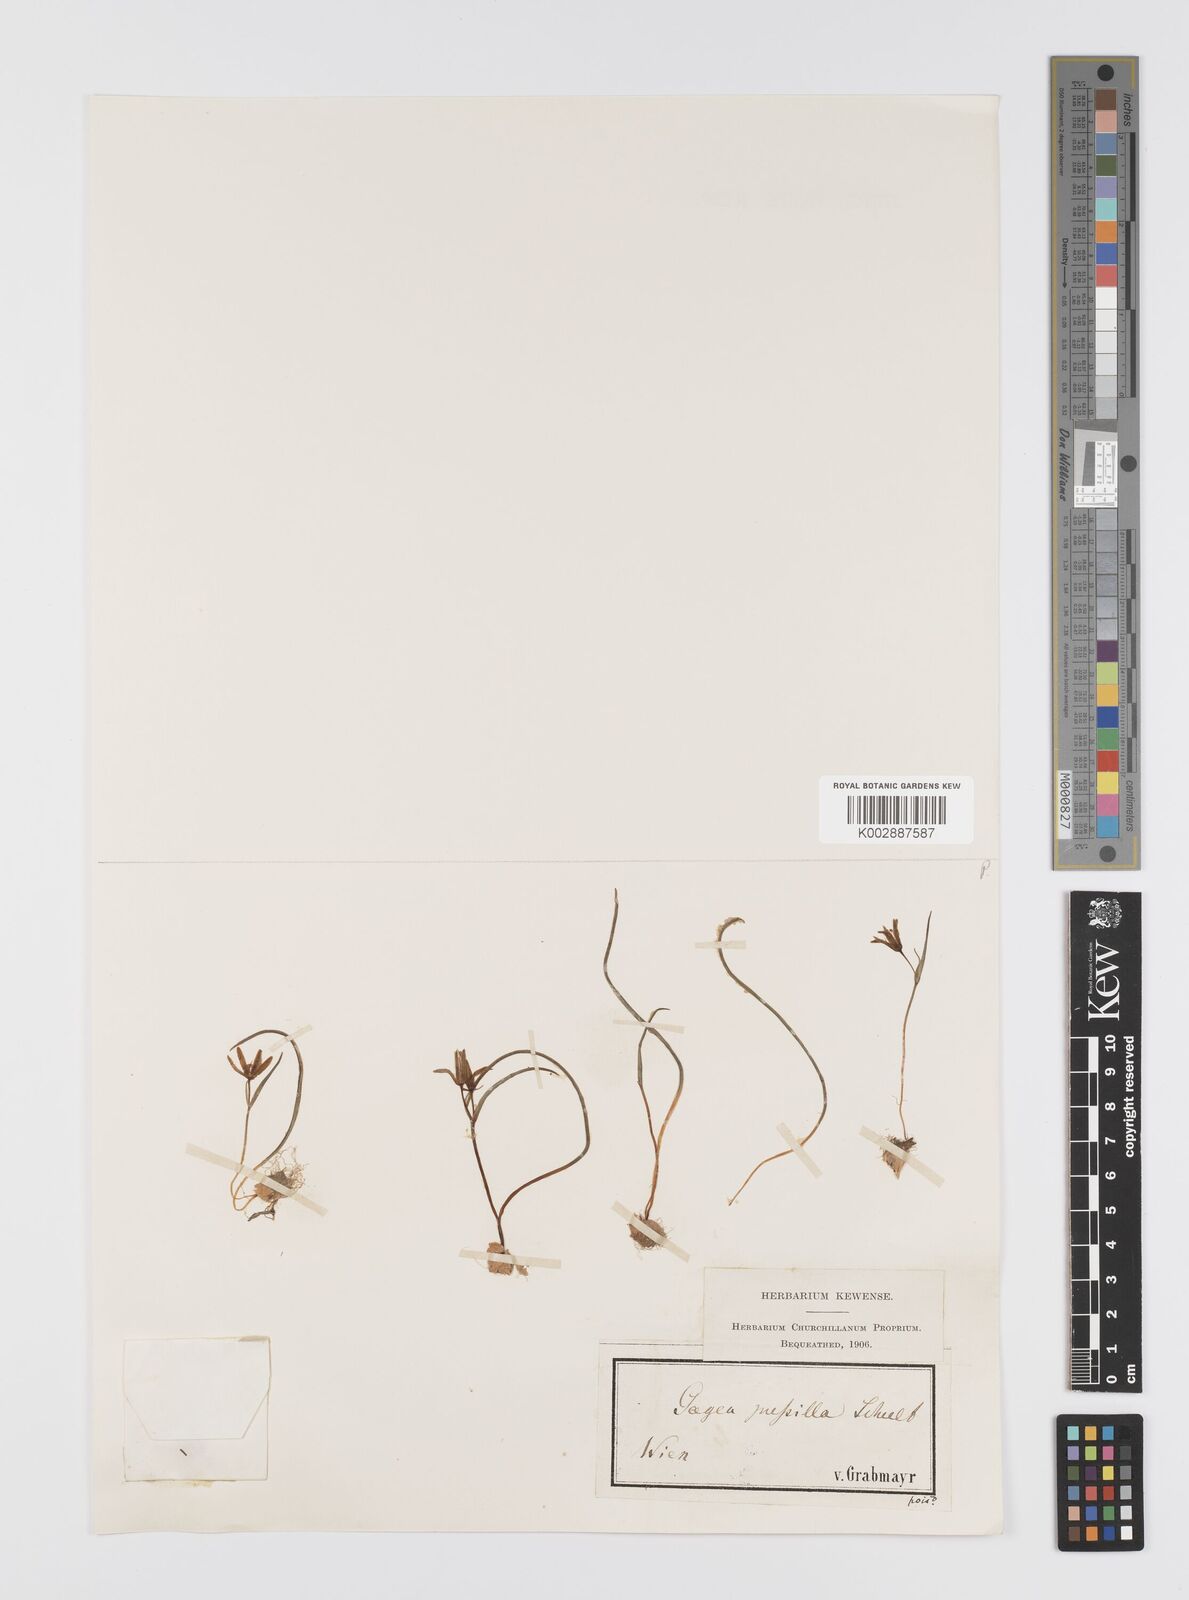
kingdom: Plantae
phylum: Tracheophyta
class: Liliopsida
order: Liliales
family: Liliaceae
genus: Gagea
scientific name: Gagea pusilla
